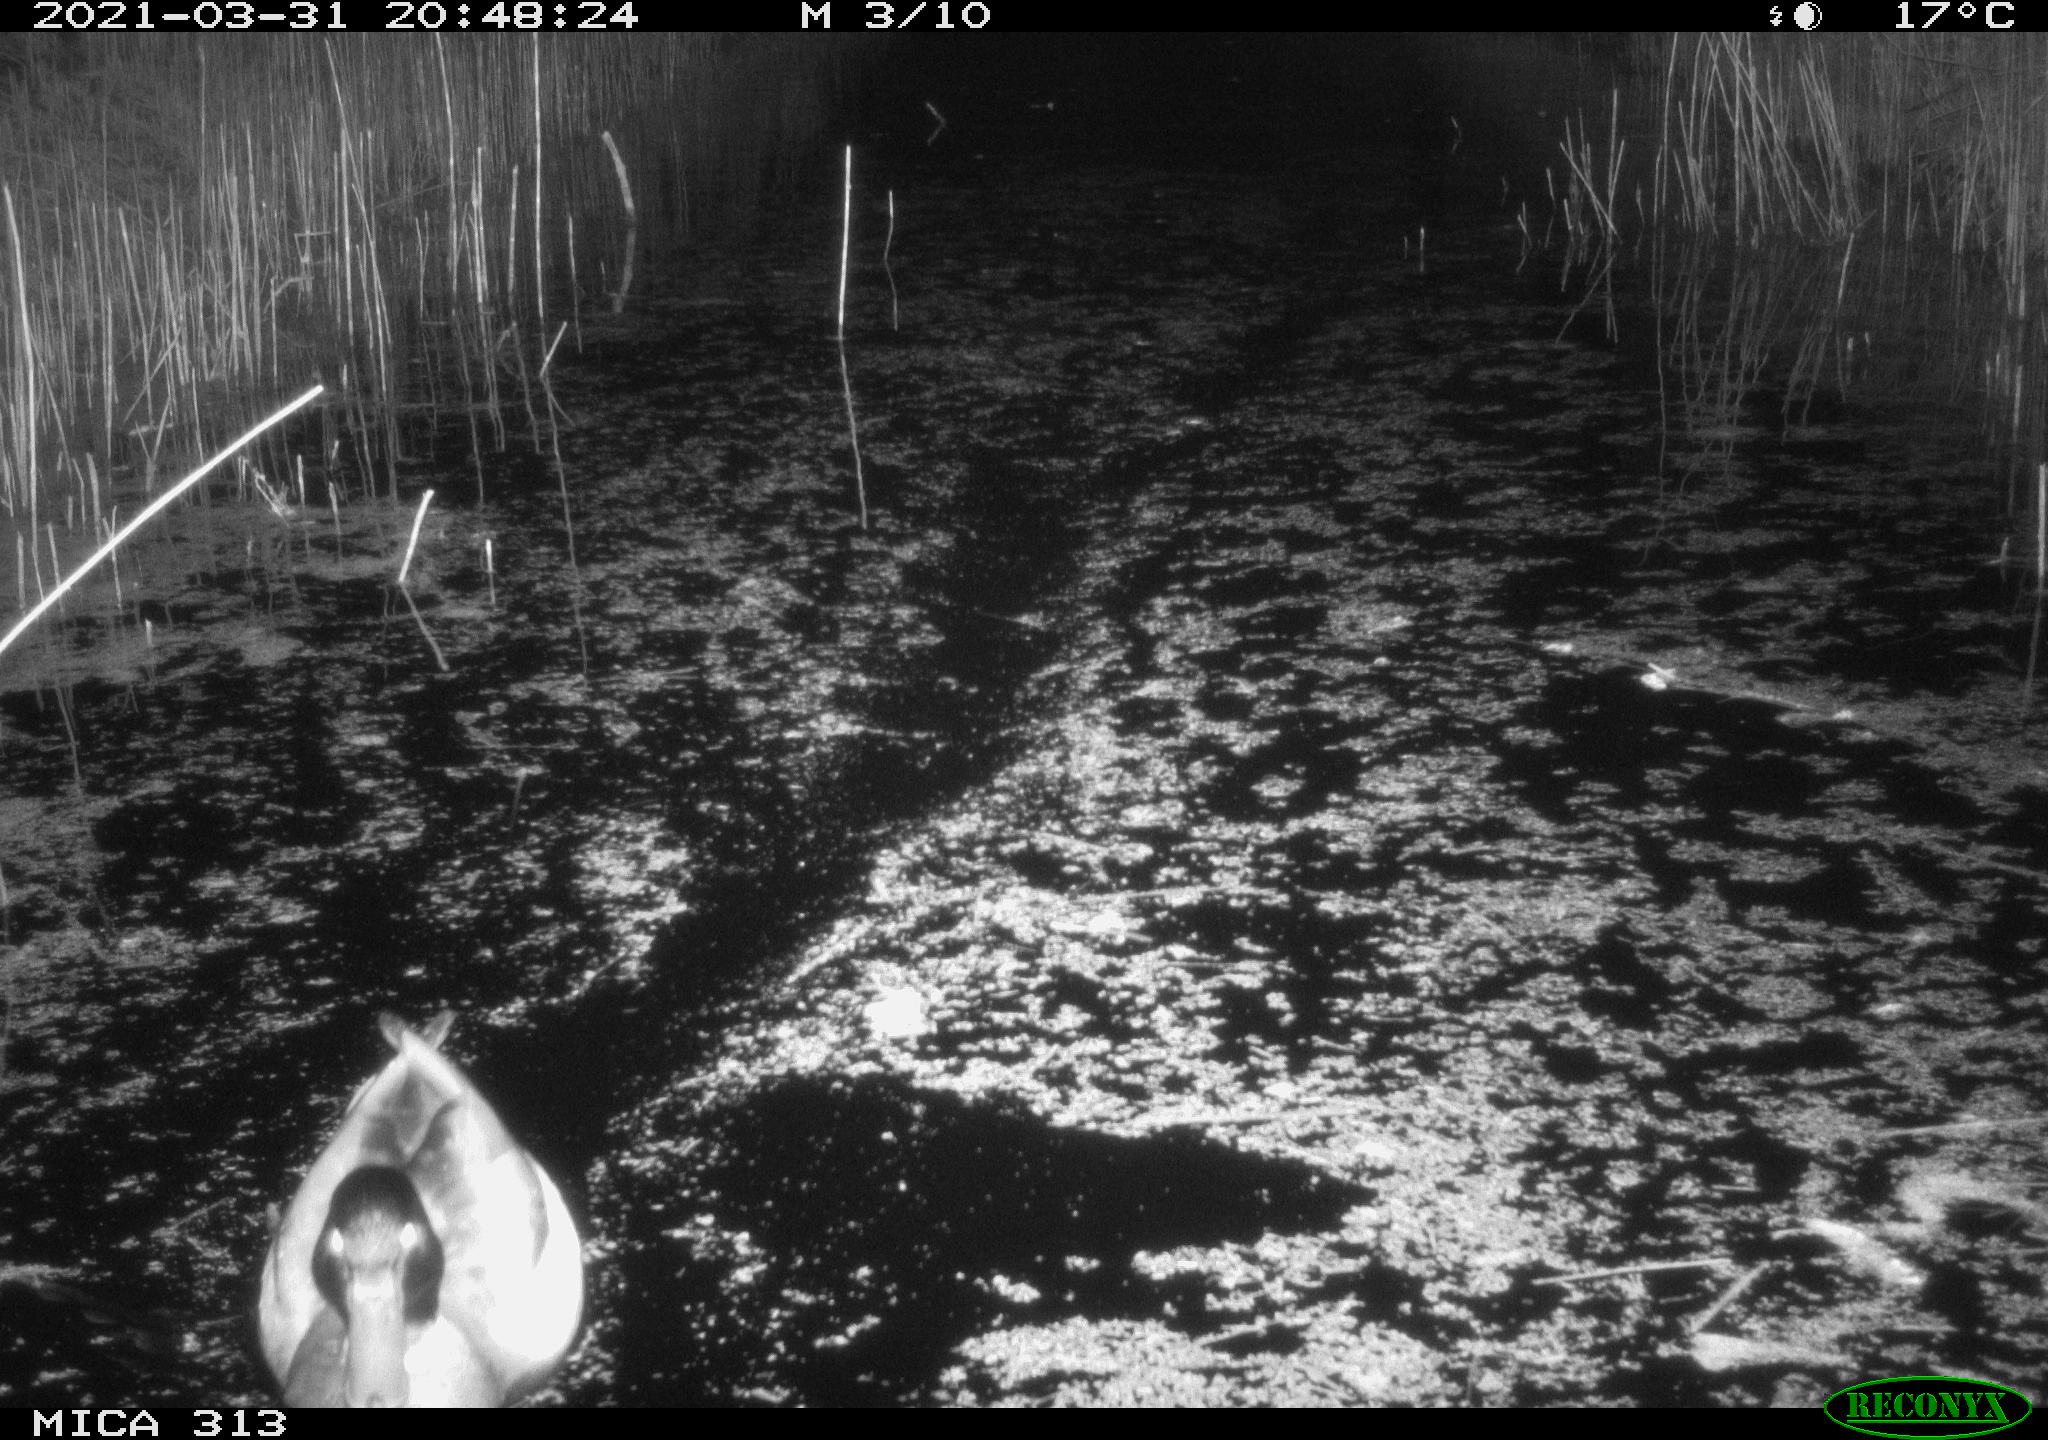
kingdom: Animalia
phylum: Chordata
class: Aves
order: Anseriformes
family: Anatidae
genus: Anas
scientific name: Anas platyrhynchos
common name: Mallard
